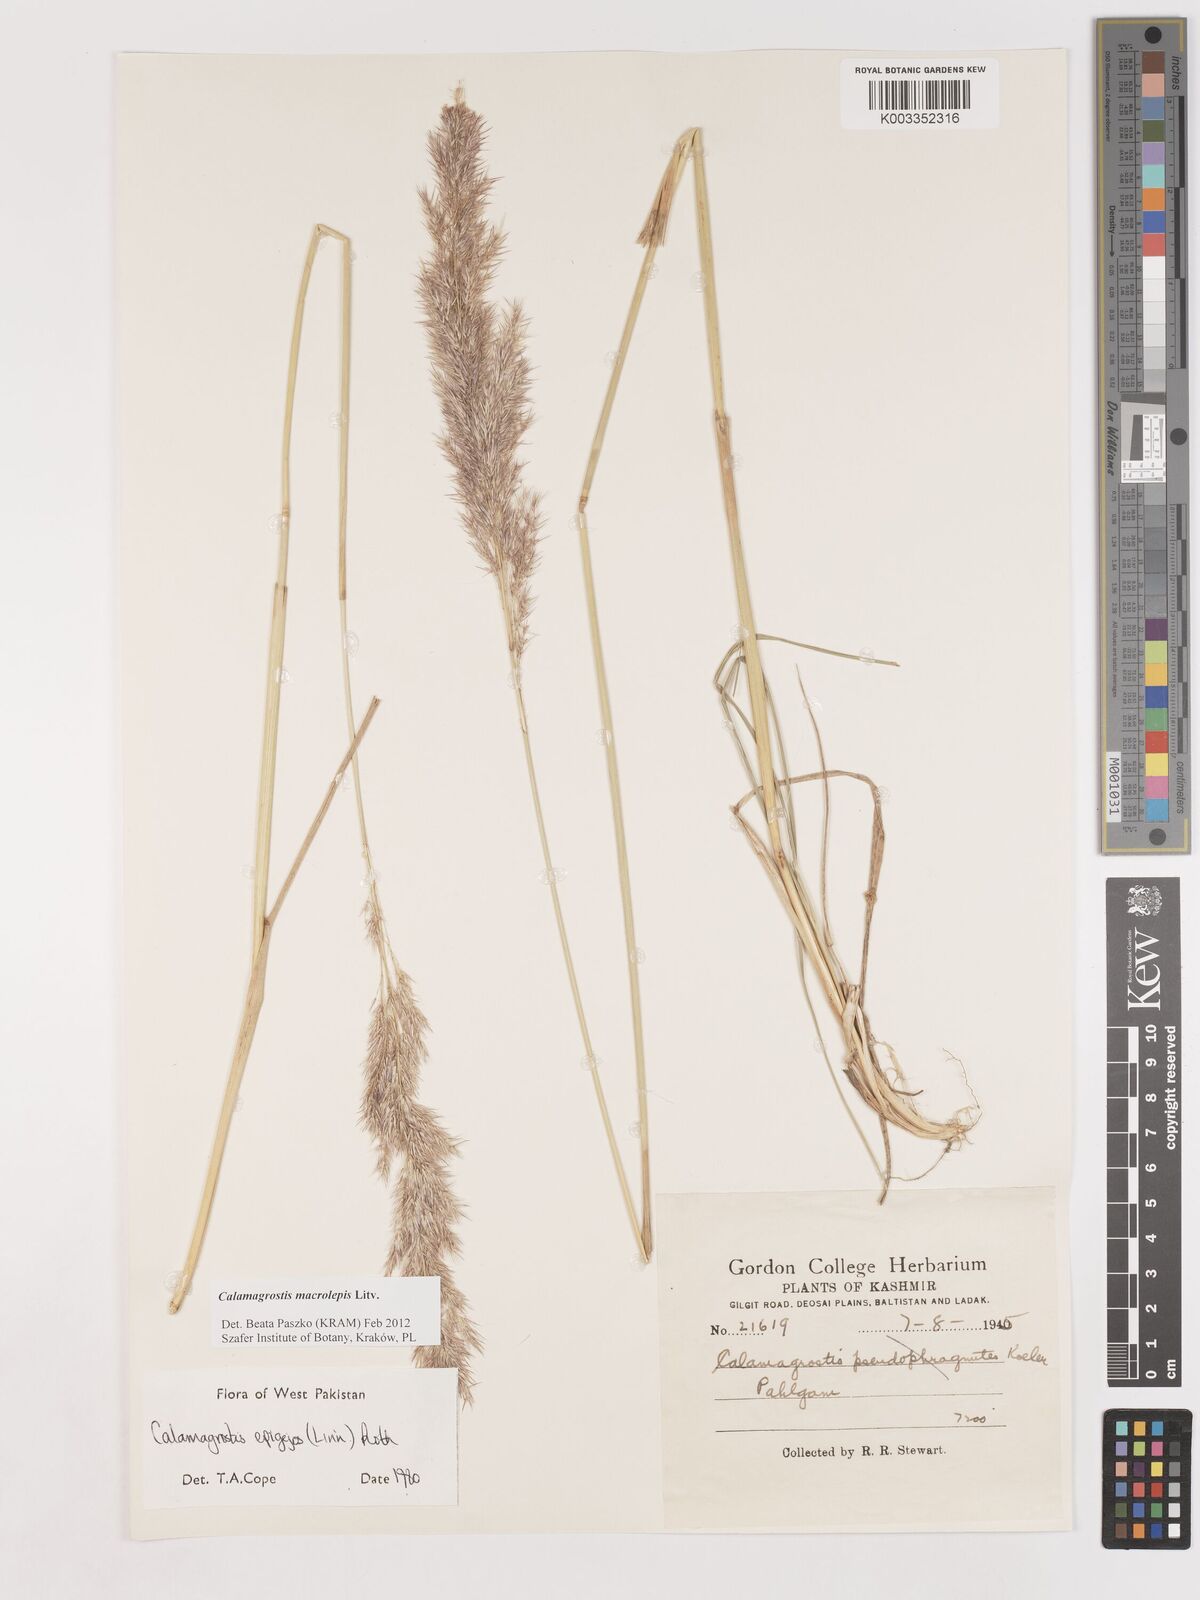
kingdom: Plantae
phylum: Tracheophyta
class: Liliopsida
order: Poales
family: Poaceae
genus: Calamagrostis
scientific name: Calamagrostis epigejos
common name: Wood small-reed
